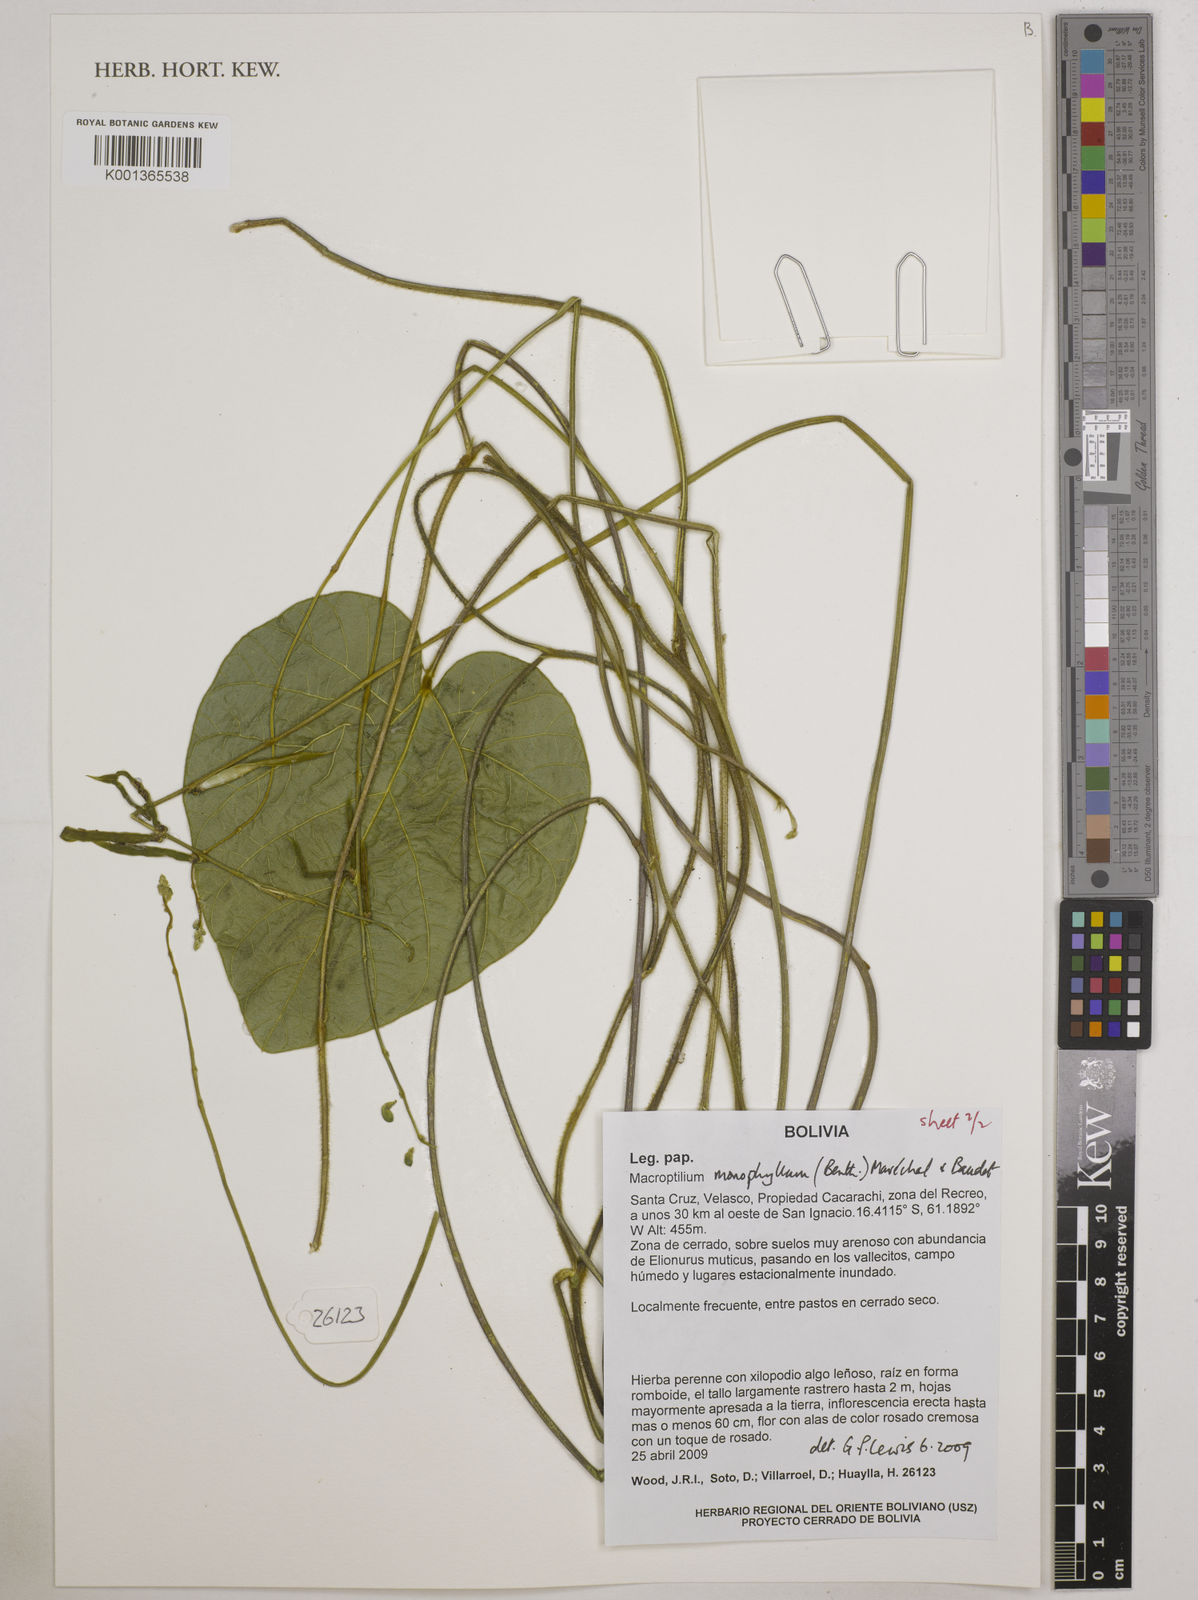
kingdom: Plantae
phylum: Tracheophyta
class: Magnoliopsida
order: Fabales
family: Fabaceae
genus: Macroptilium
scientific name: Macroptilium monophyllum
